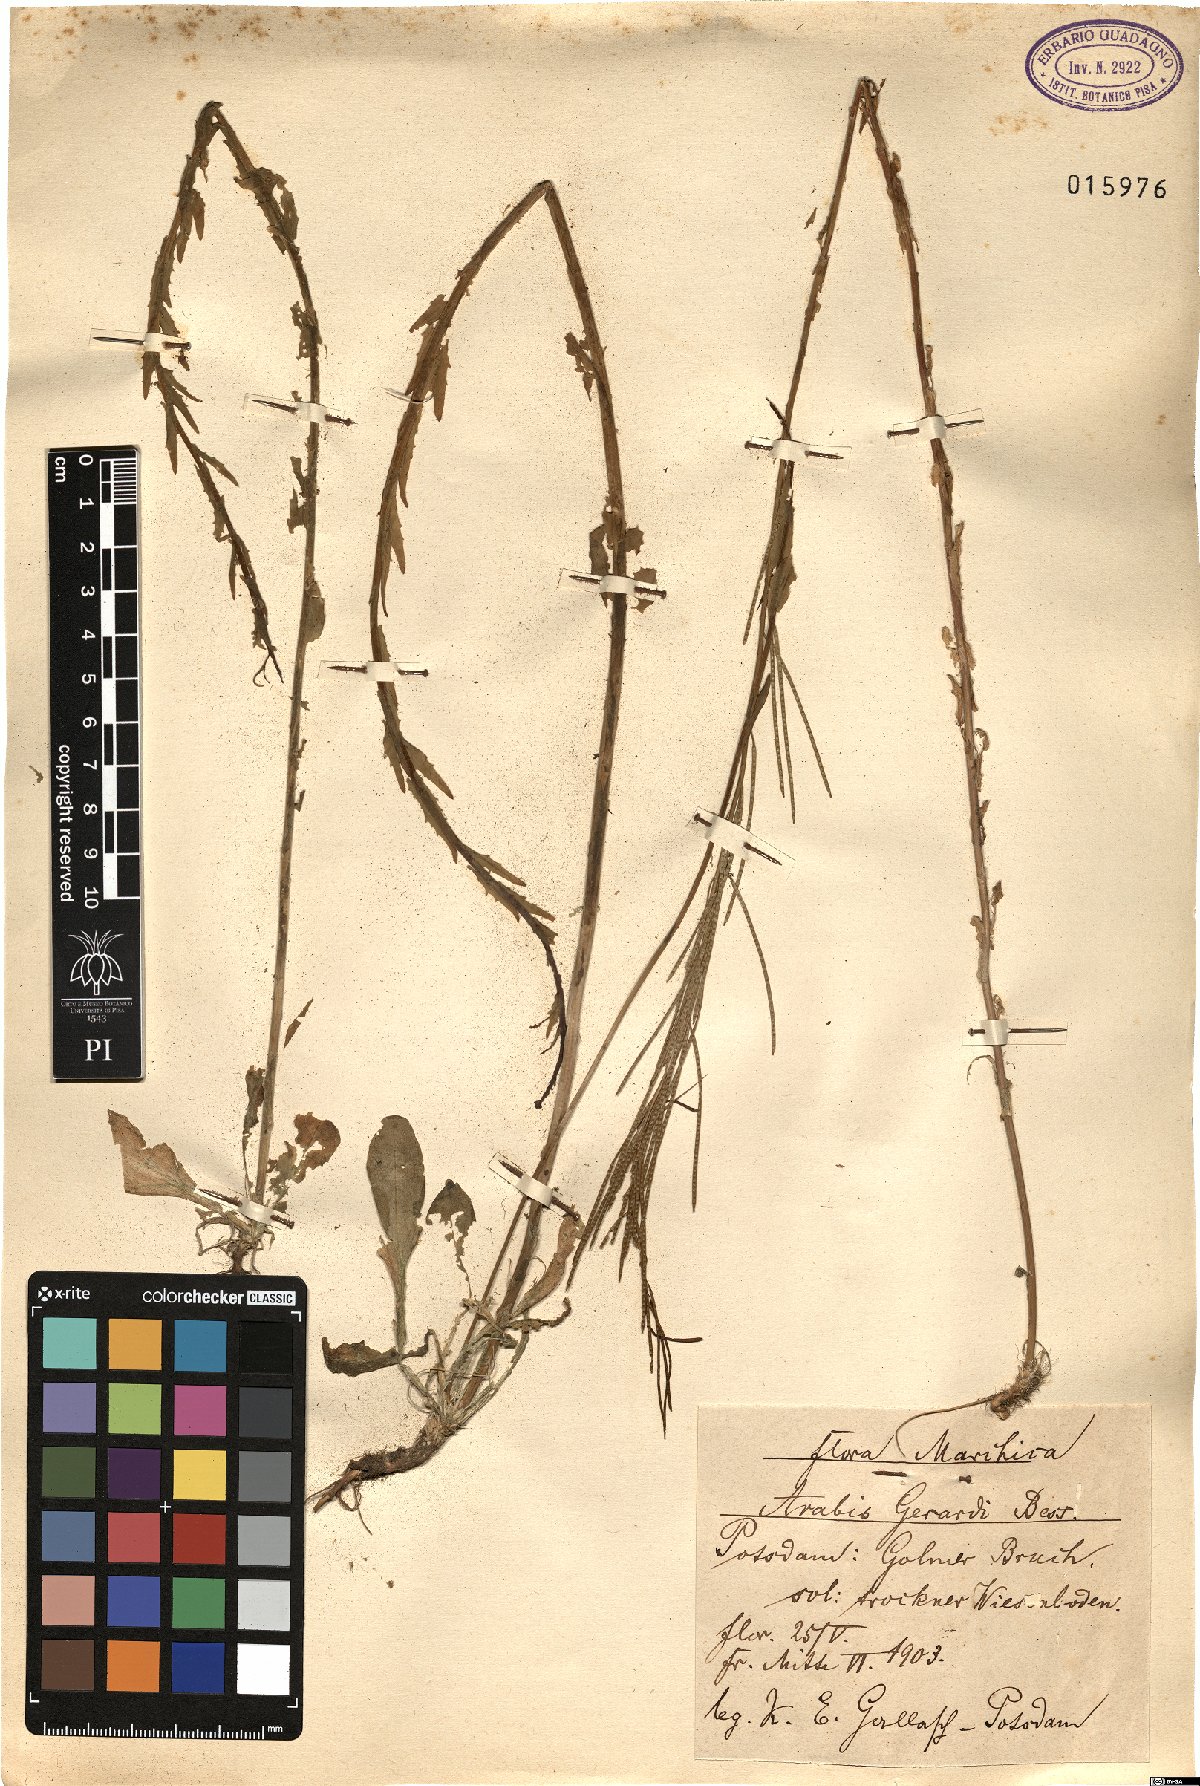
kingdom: Plantae
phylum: Tracheophyta
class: Magnoliopsida
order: Brassicales
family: Brassicaceae
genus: Arabis
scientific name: Arabis planisiliqua
